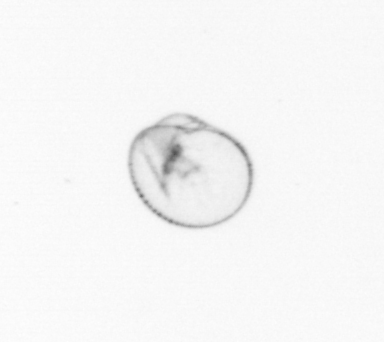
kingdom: Chromista
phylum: Myzozoa
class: Dinophyceae
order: Noctilucales
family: Noctilucaceae
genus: Noctiluca
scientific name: Noctiluca scintillans
